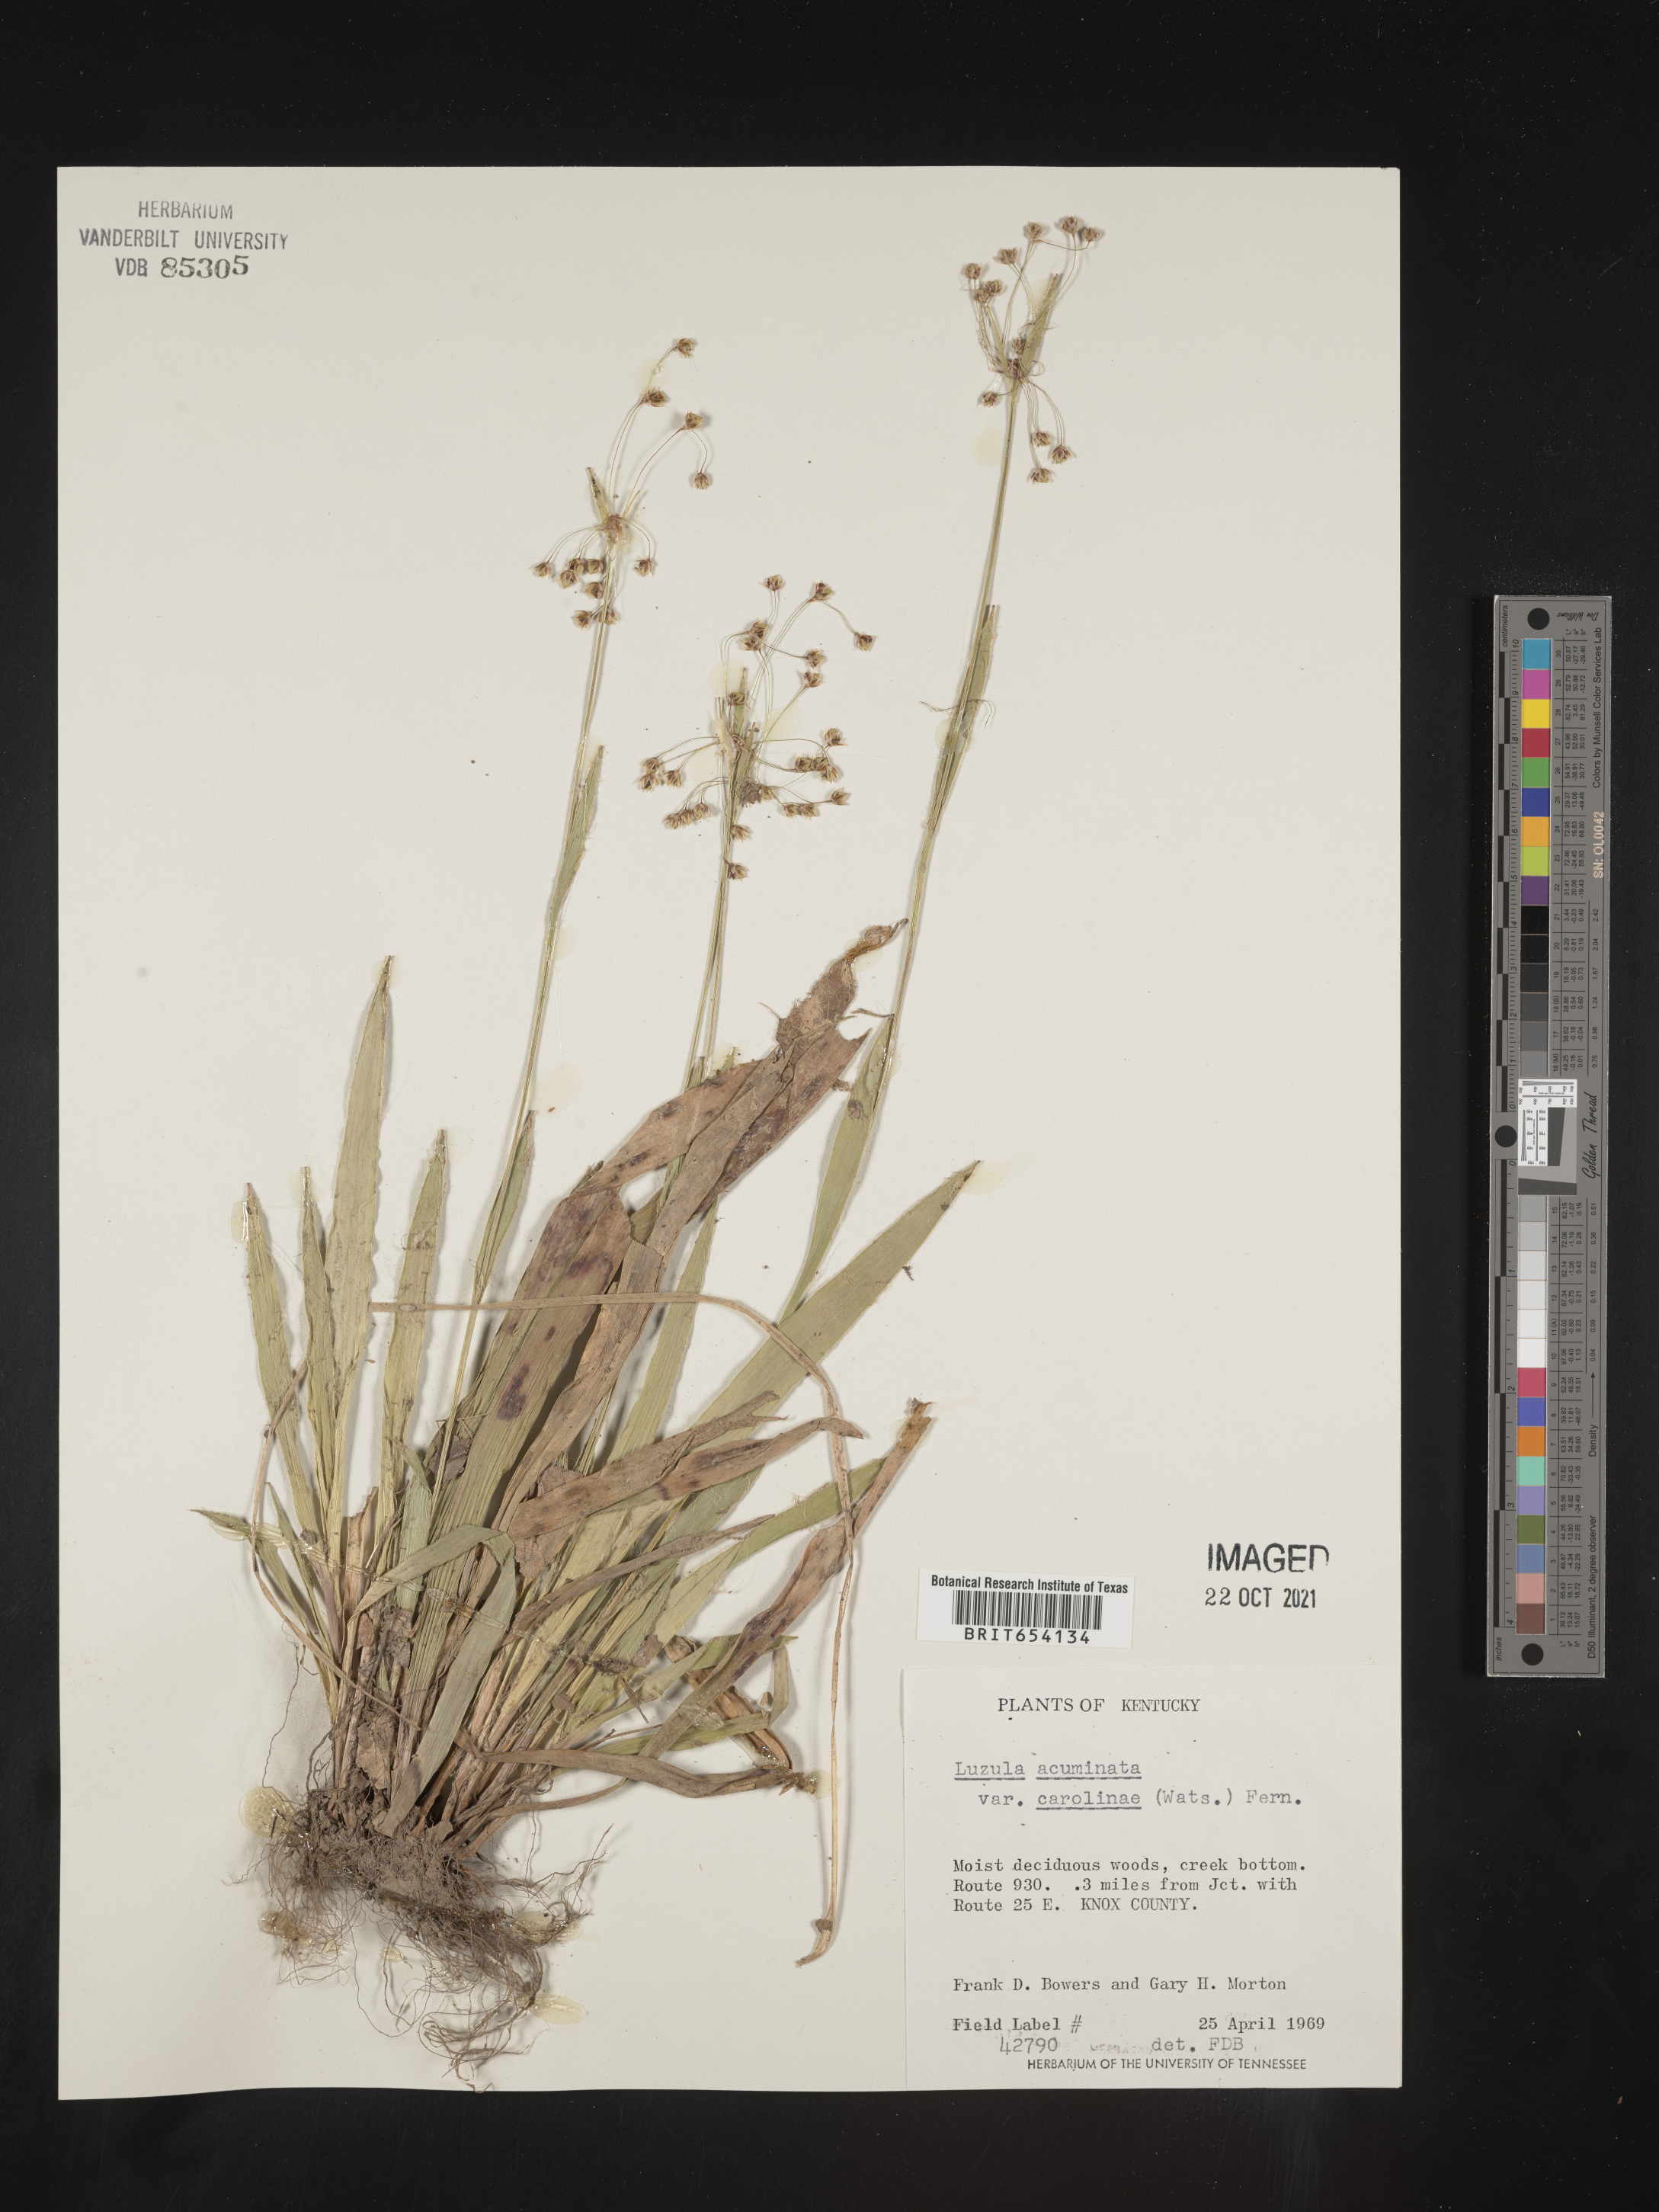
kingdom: Plantae
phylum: Tracheophyta
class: Liliopsida
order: Poales
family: Juncaceae
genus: Luzula
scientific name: Luzula acuminata
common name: Hairy woodrush
